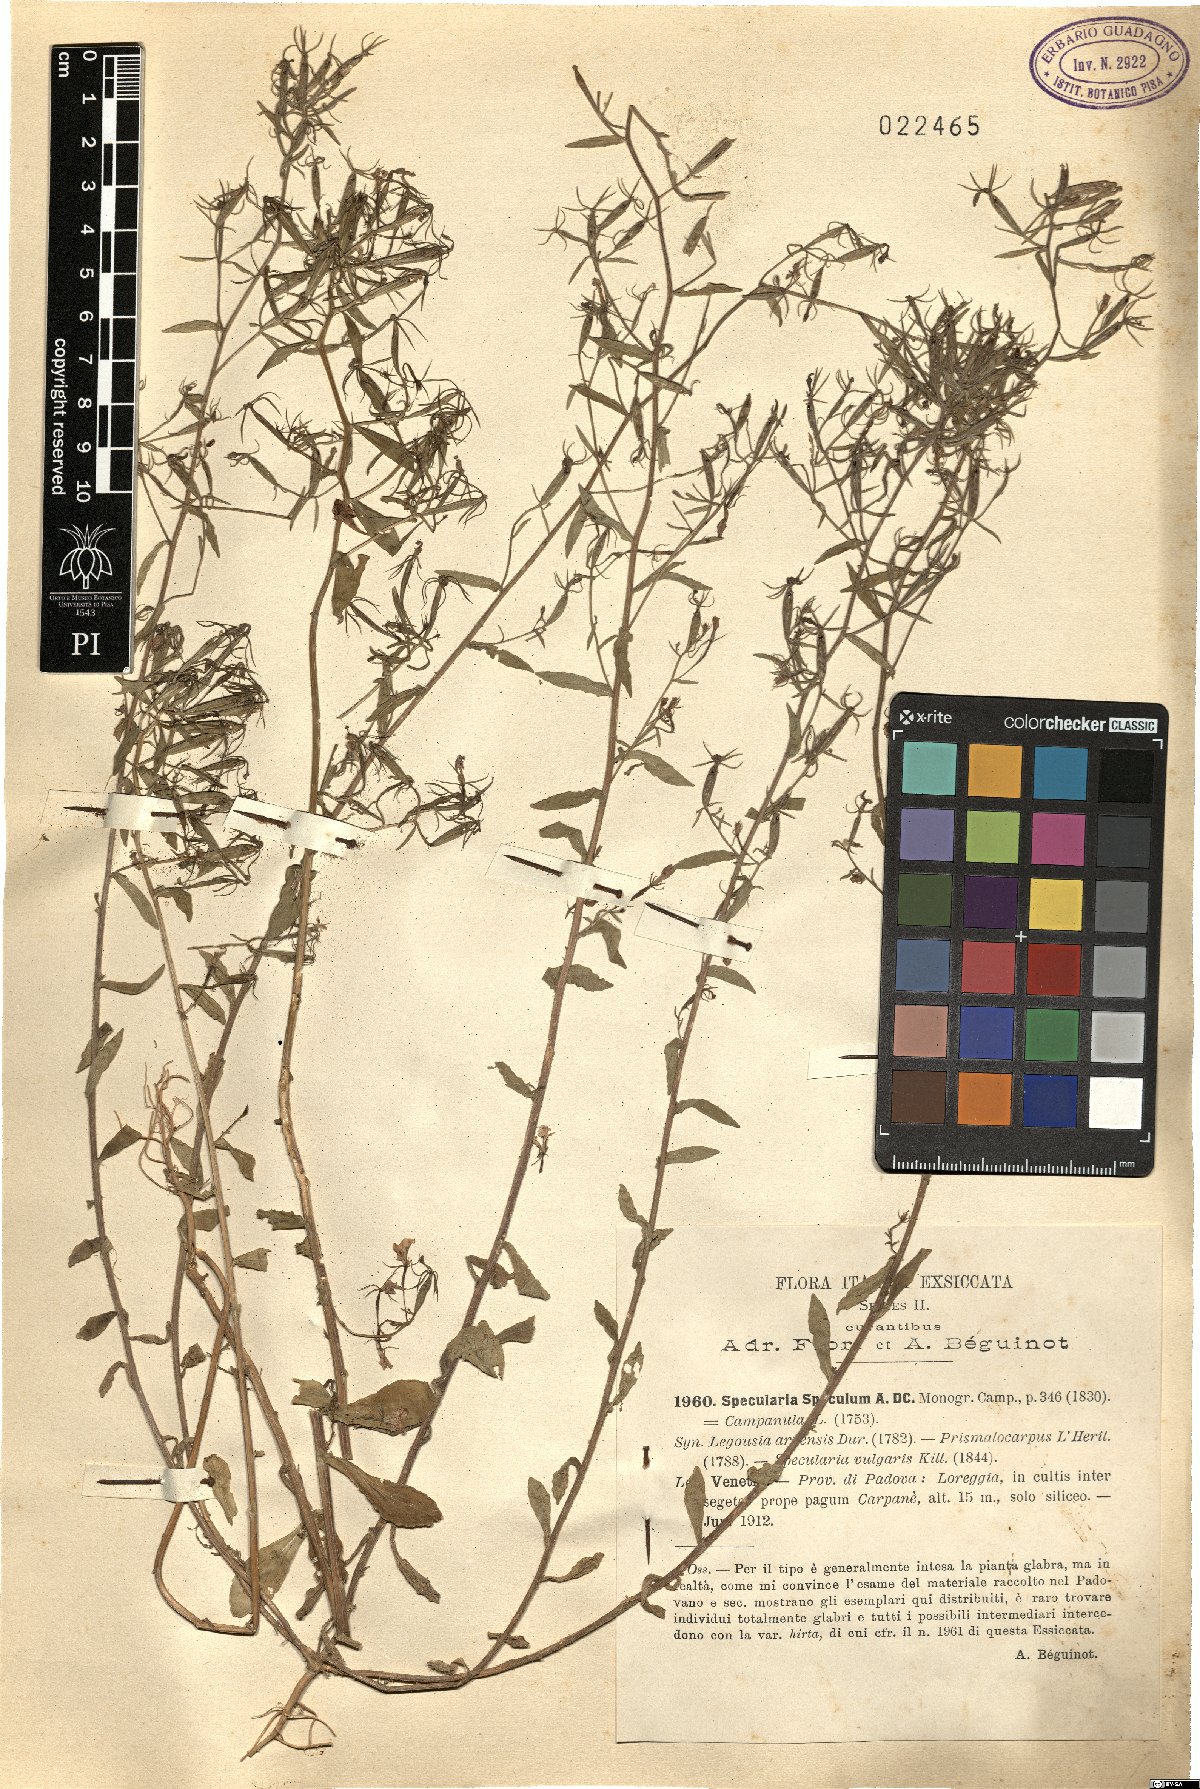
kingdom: Plantae
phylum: Tracheophyta
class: Magnoliopsida
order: Asterales
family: Campanulaceae
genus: Legousia
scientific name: Legousia speculum-veneris
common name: Large venus's-looking-glass
